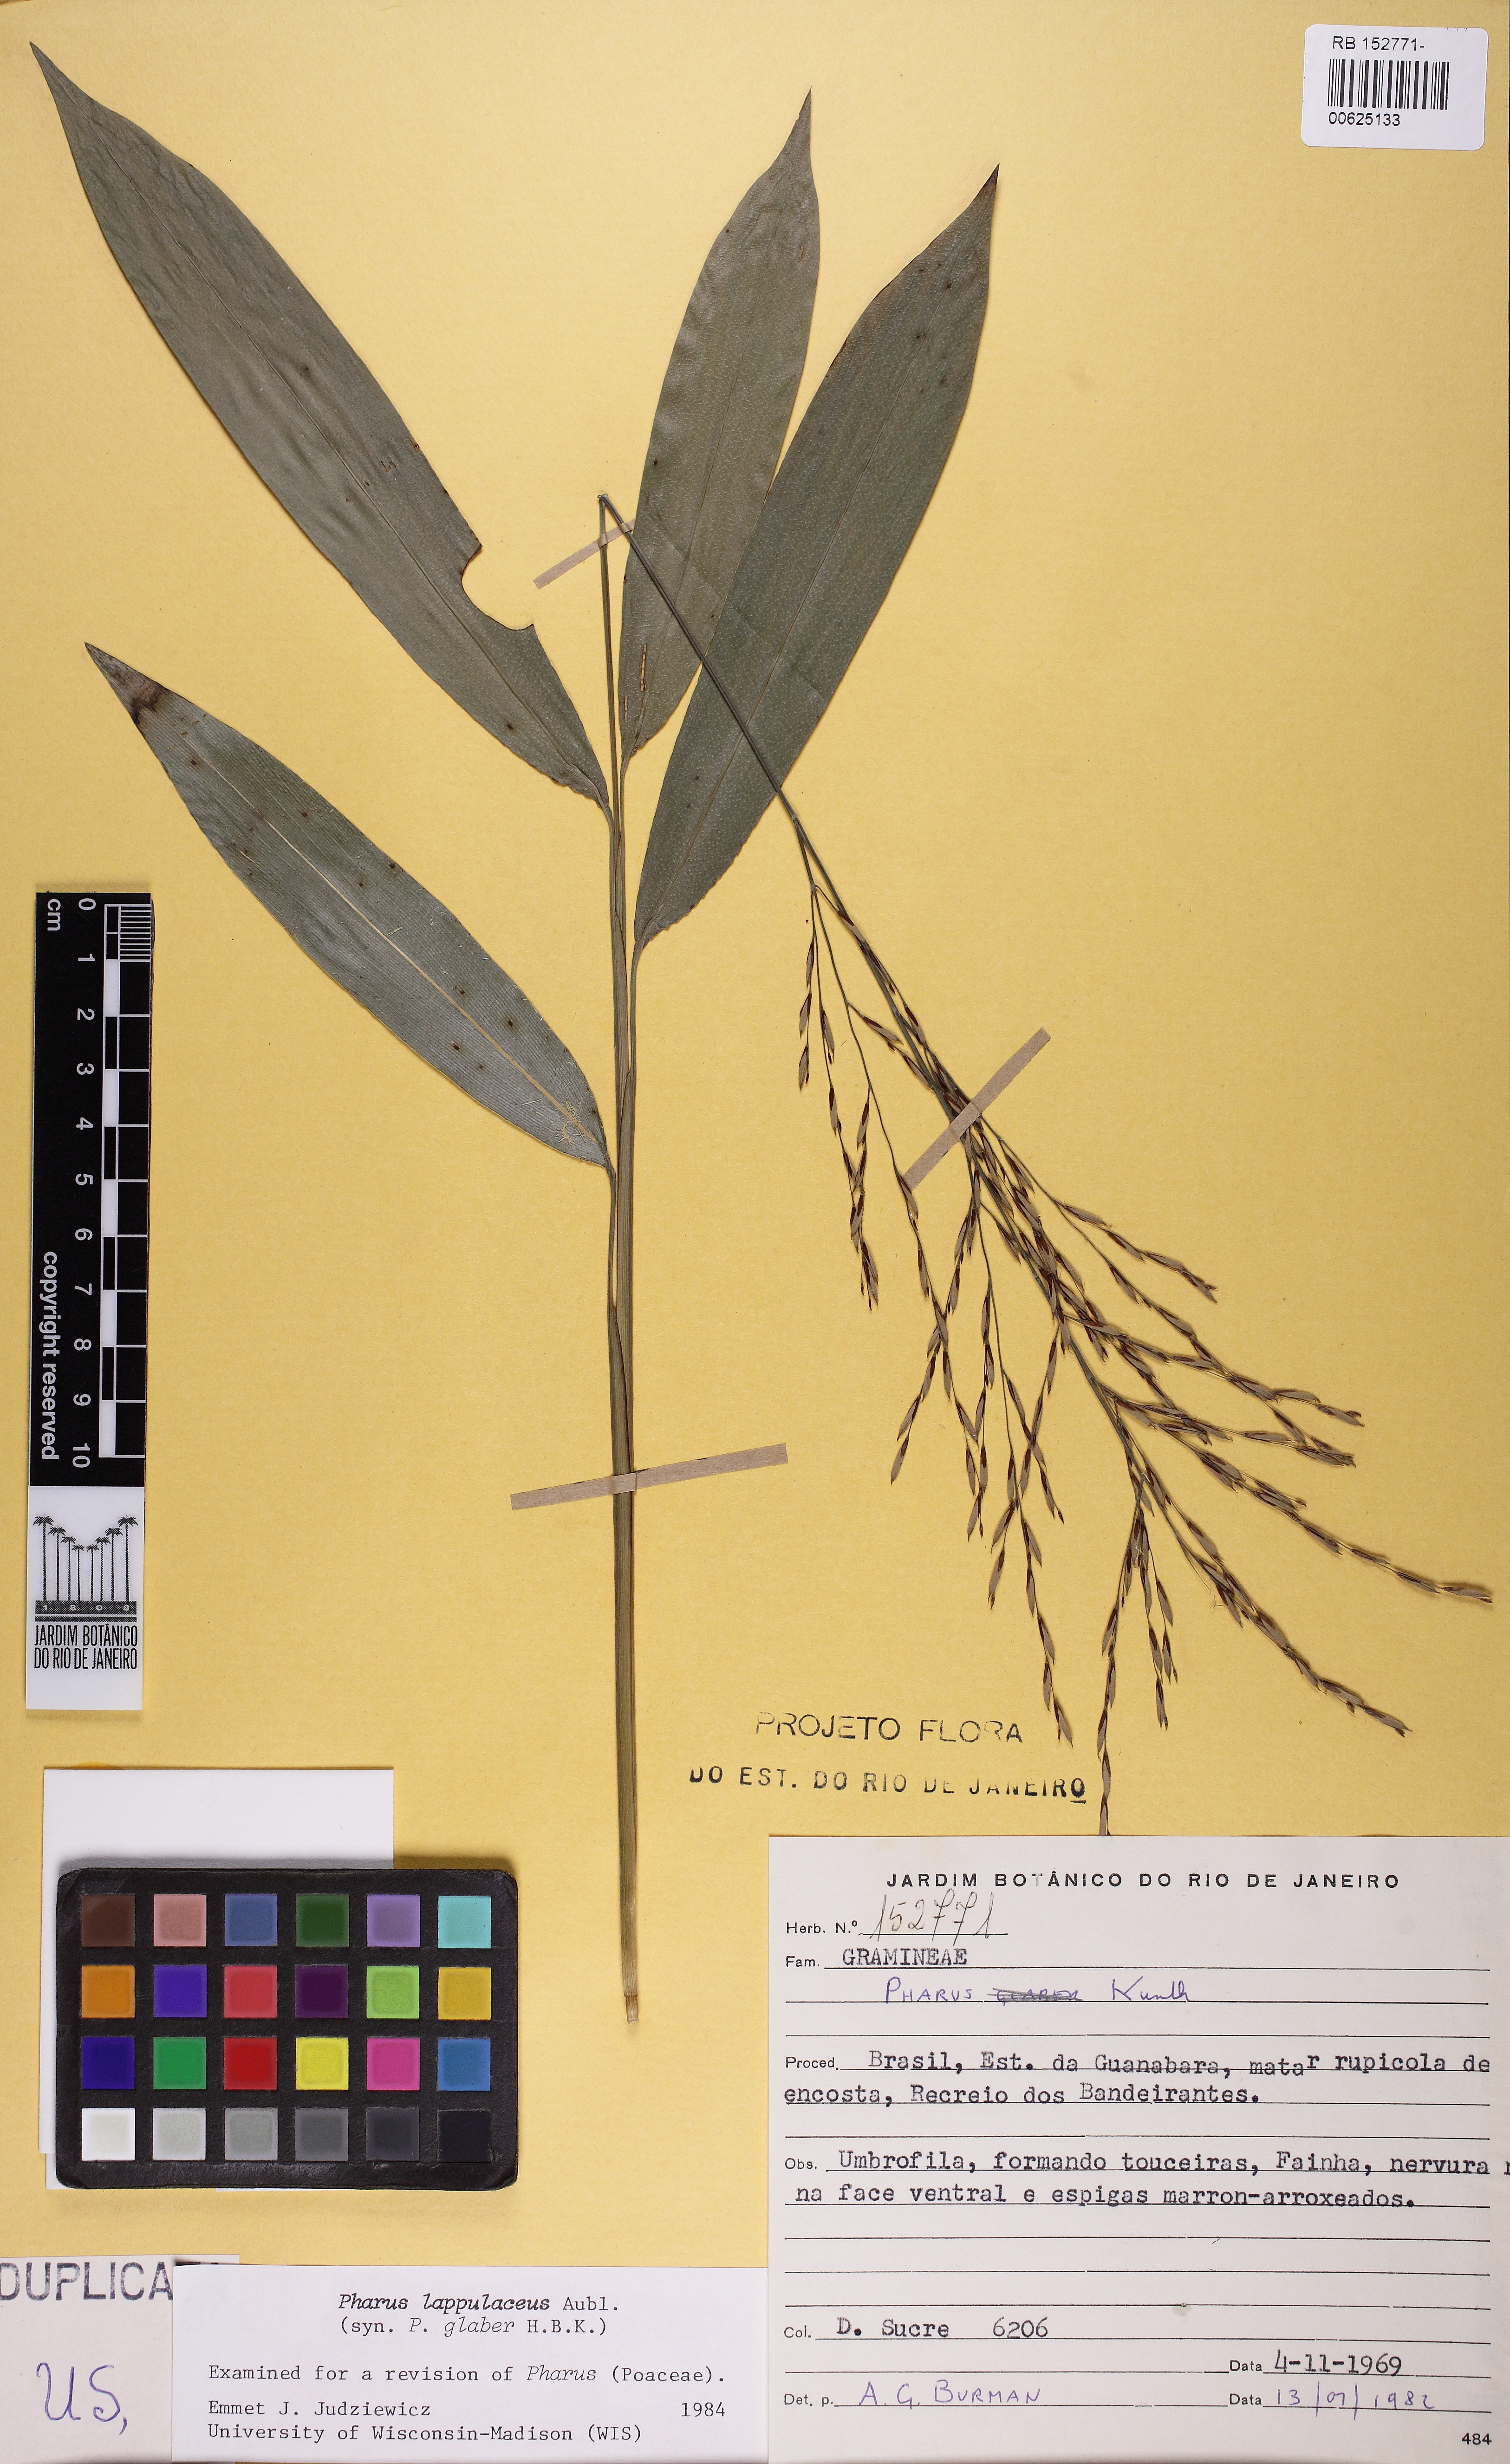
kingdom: Plantae
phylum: Tracheophyta
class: Liliopsida
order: Poales
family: Poaceae
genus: Pharus
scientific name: Pharus lappulaceus
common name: Creeping leafstalk grass
